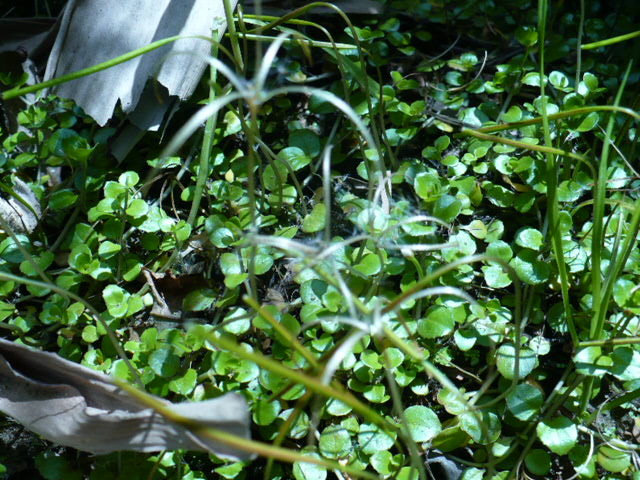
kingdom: Plantae
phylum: Tracheophyta
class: Magnoliopsida
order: Myrtales
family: Onagraceae
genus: Epilobium
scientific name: Epilobium brunnescens
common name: New zealand willowherb
